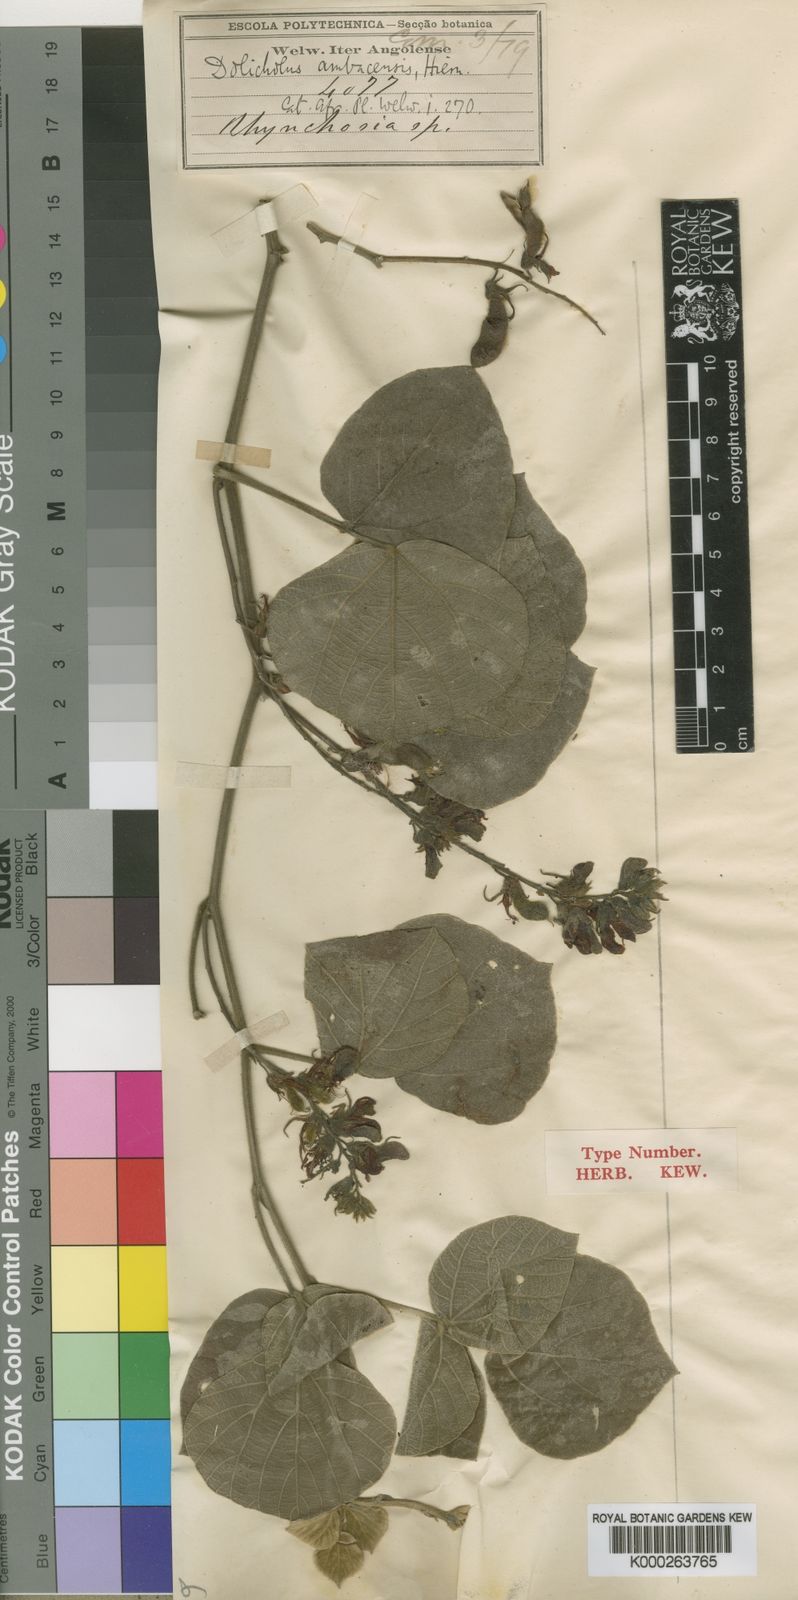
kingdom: Plantae
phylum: Tracheophyta
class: Magnoliopsida
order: Fabales
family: Fabaceae
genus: Rhynchosia
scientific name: Rhynchosia ambacensis
